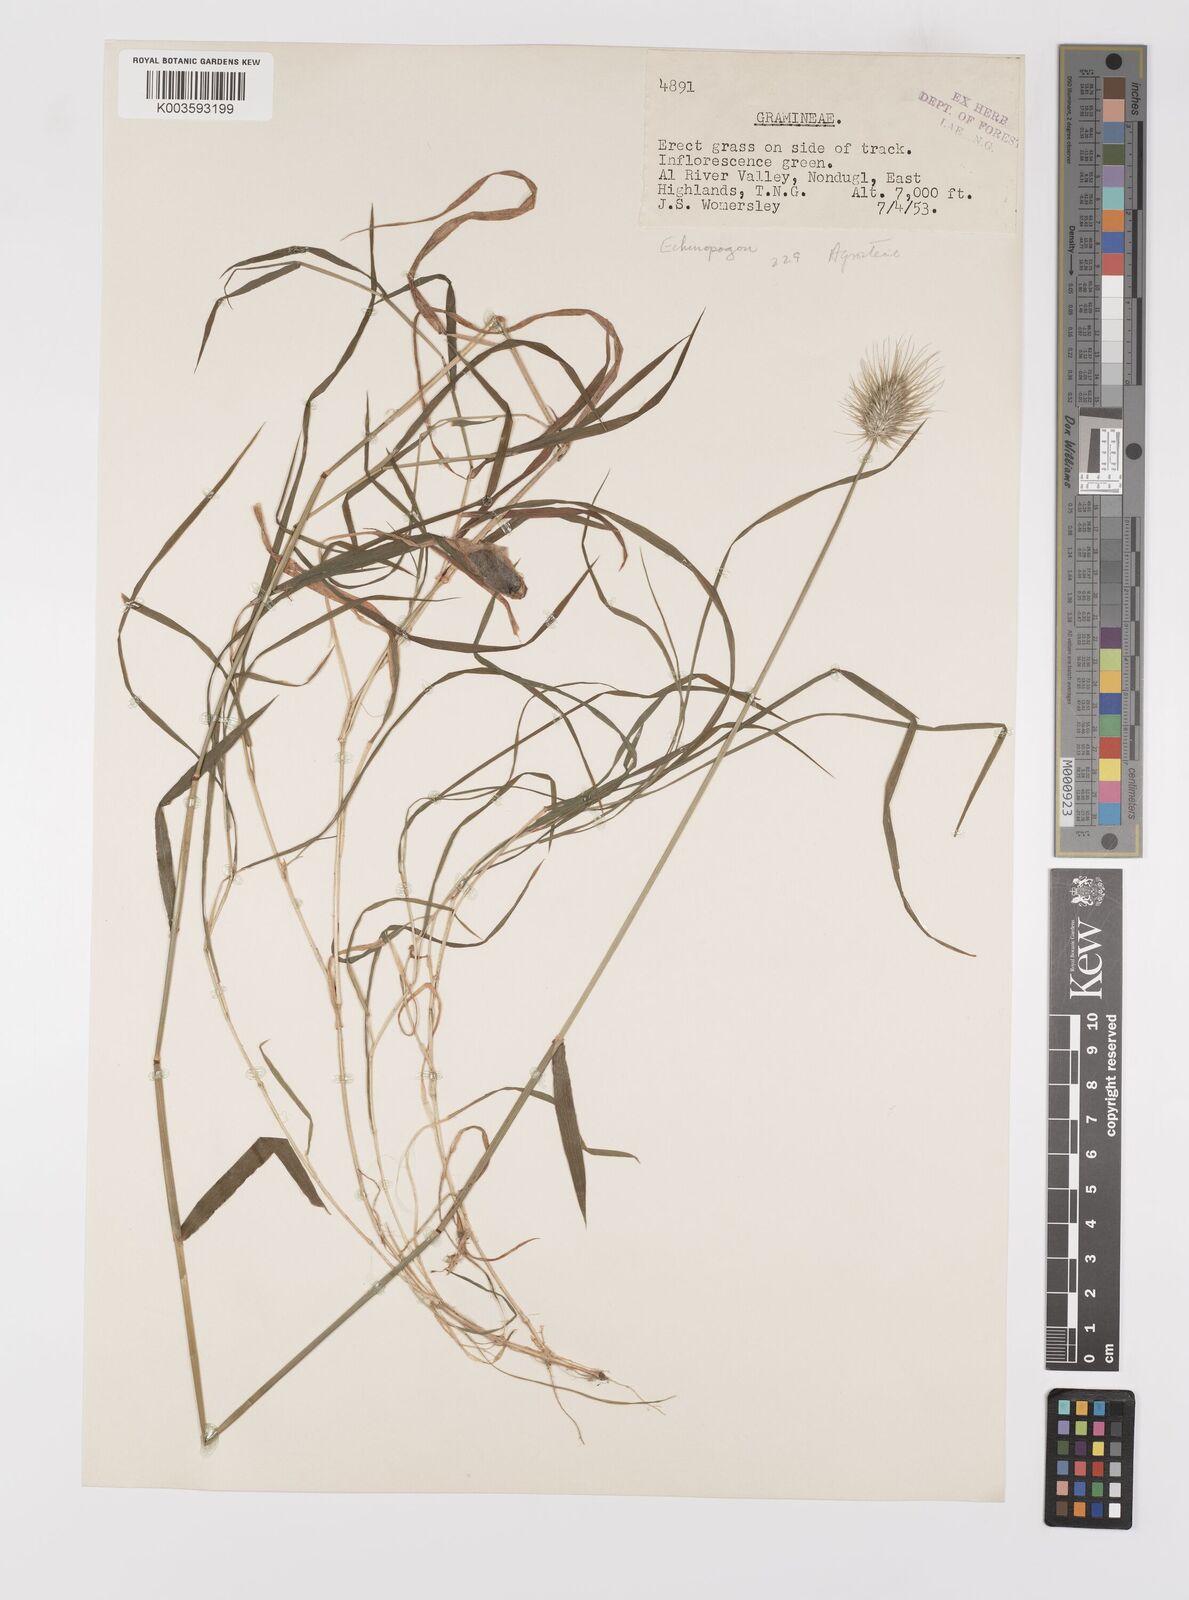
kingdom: Plantae
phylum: Tracheophyta
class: Liliopsida
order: Poales
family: Poaceae
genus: Echinopogon
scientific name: Echinopogon ovatus
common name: Hedgehog-grass
